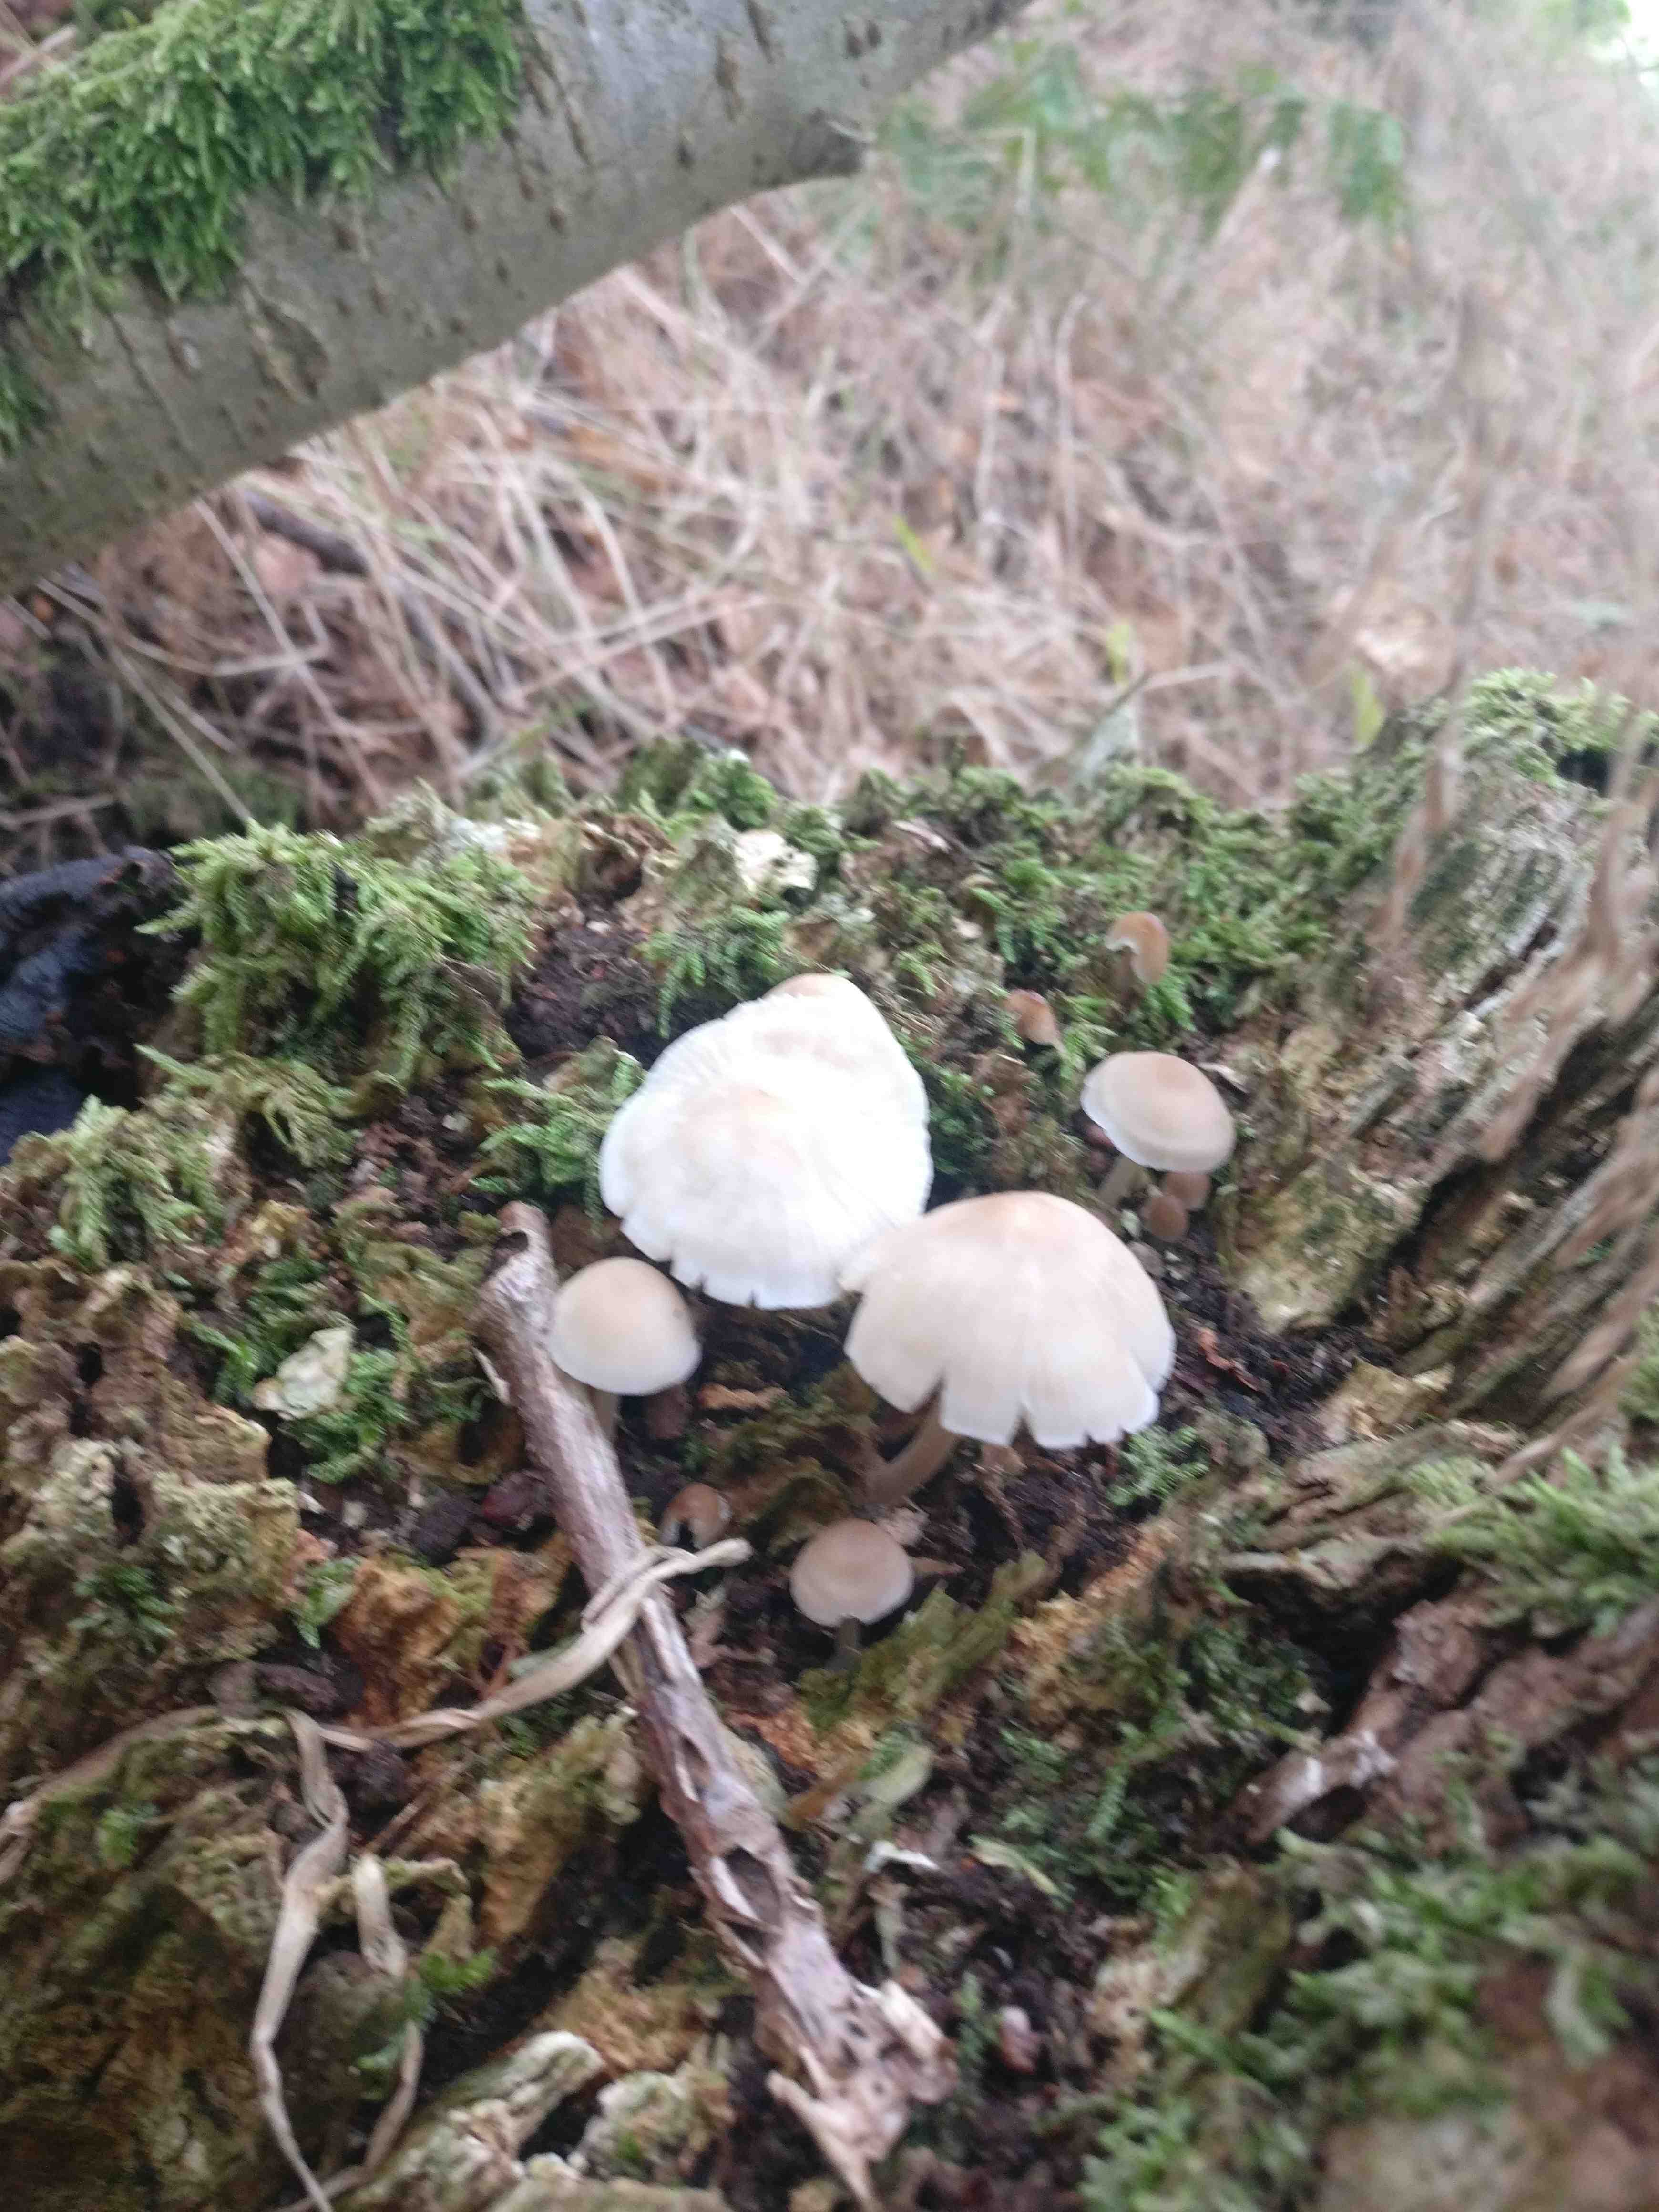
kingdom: Fungi
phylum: Basidiomycota
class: Agaricomycetes
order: Agaricales
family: Mycenaceae
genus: Mycena
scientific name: Mycena galericulata
